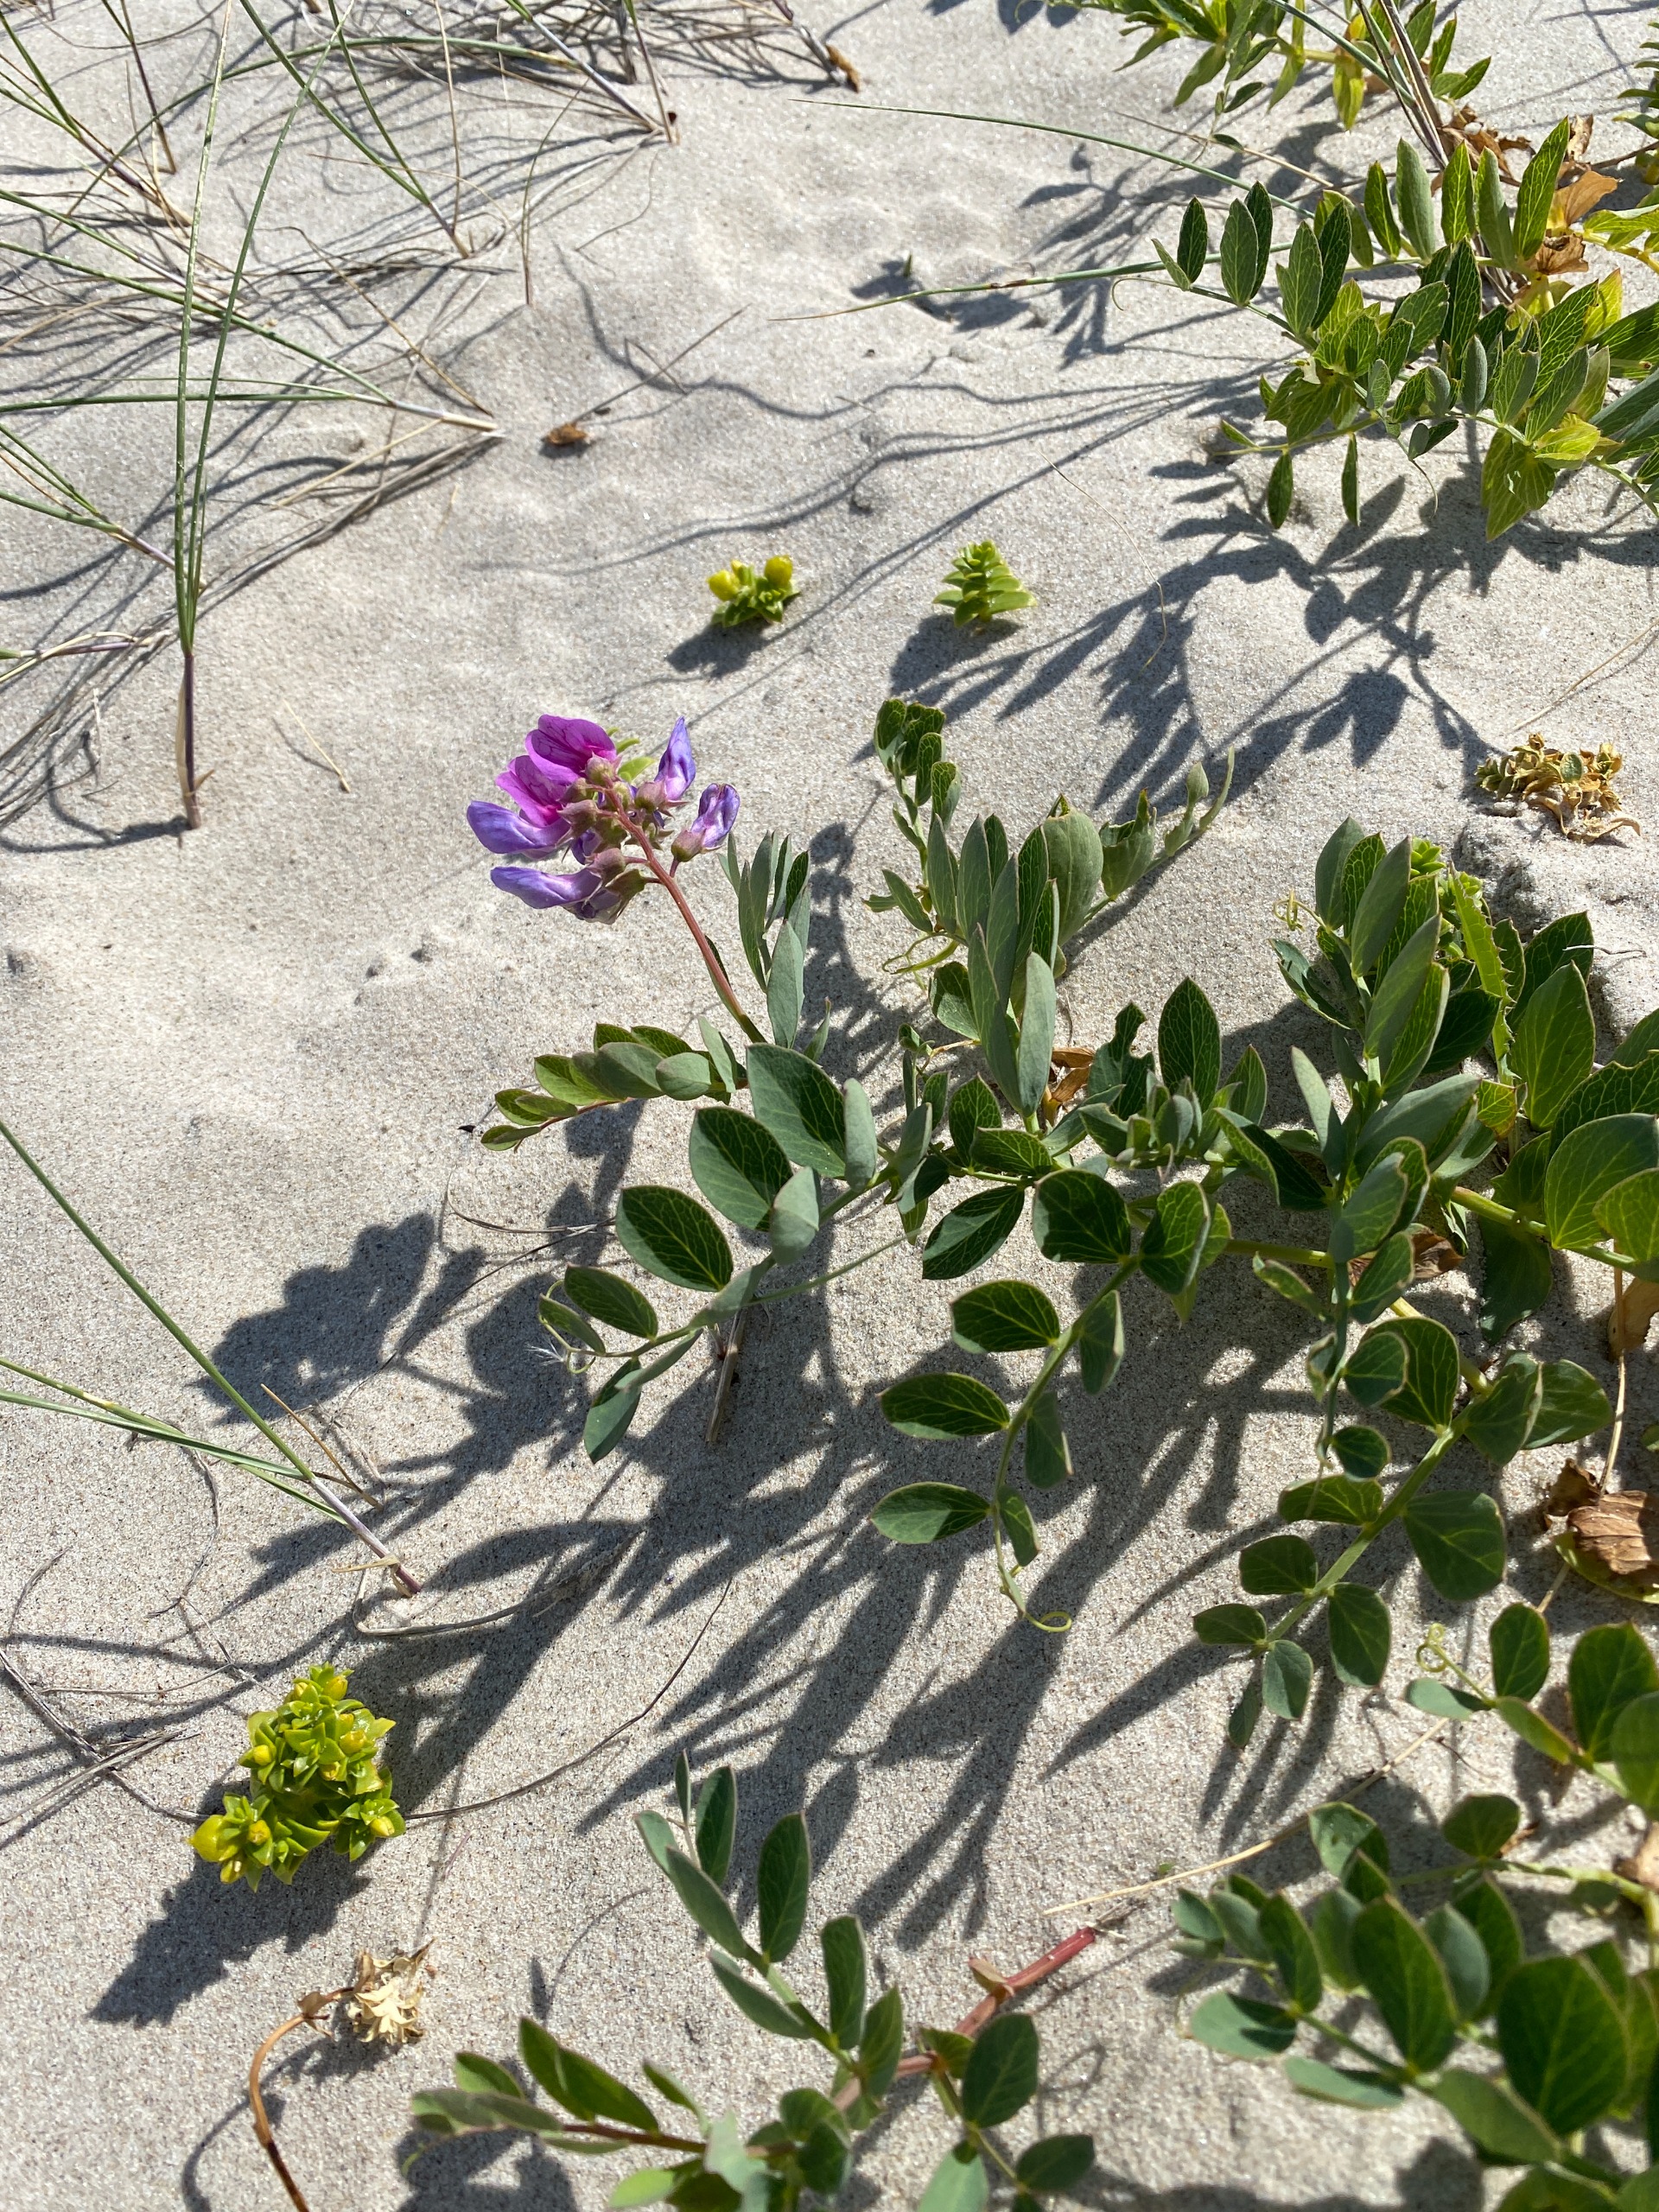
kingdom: Plantae
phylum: Tracheophyta
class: Magnoliopsida
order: Fabales
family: Fabaceae
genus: Lathyrus
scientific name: Lathyrus japonicus
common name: Strand-fladbælg
